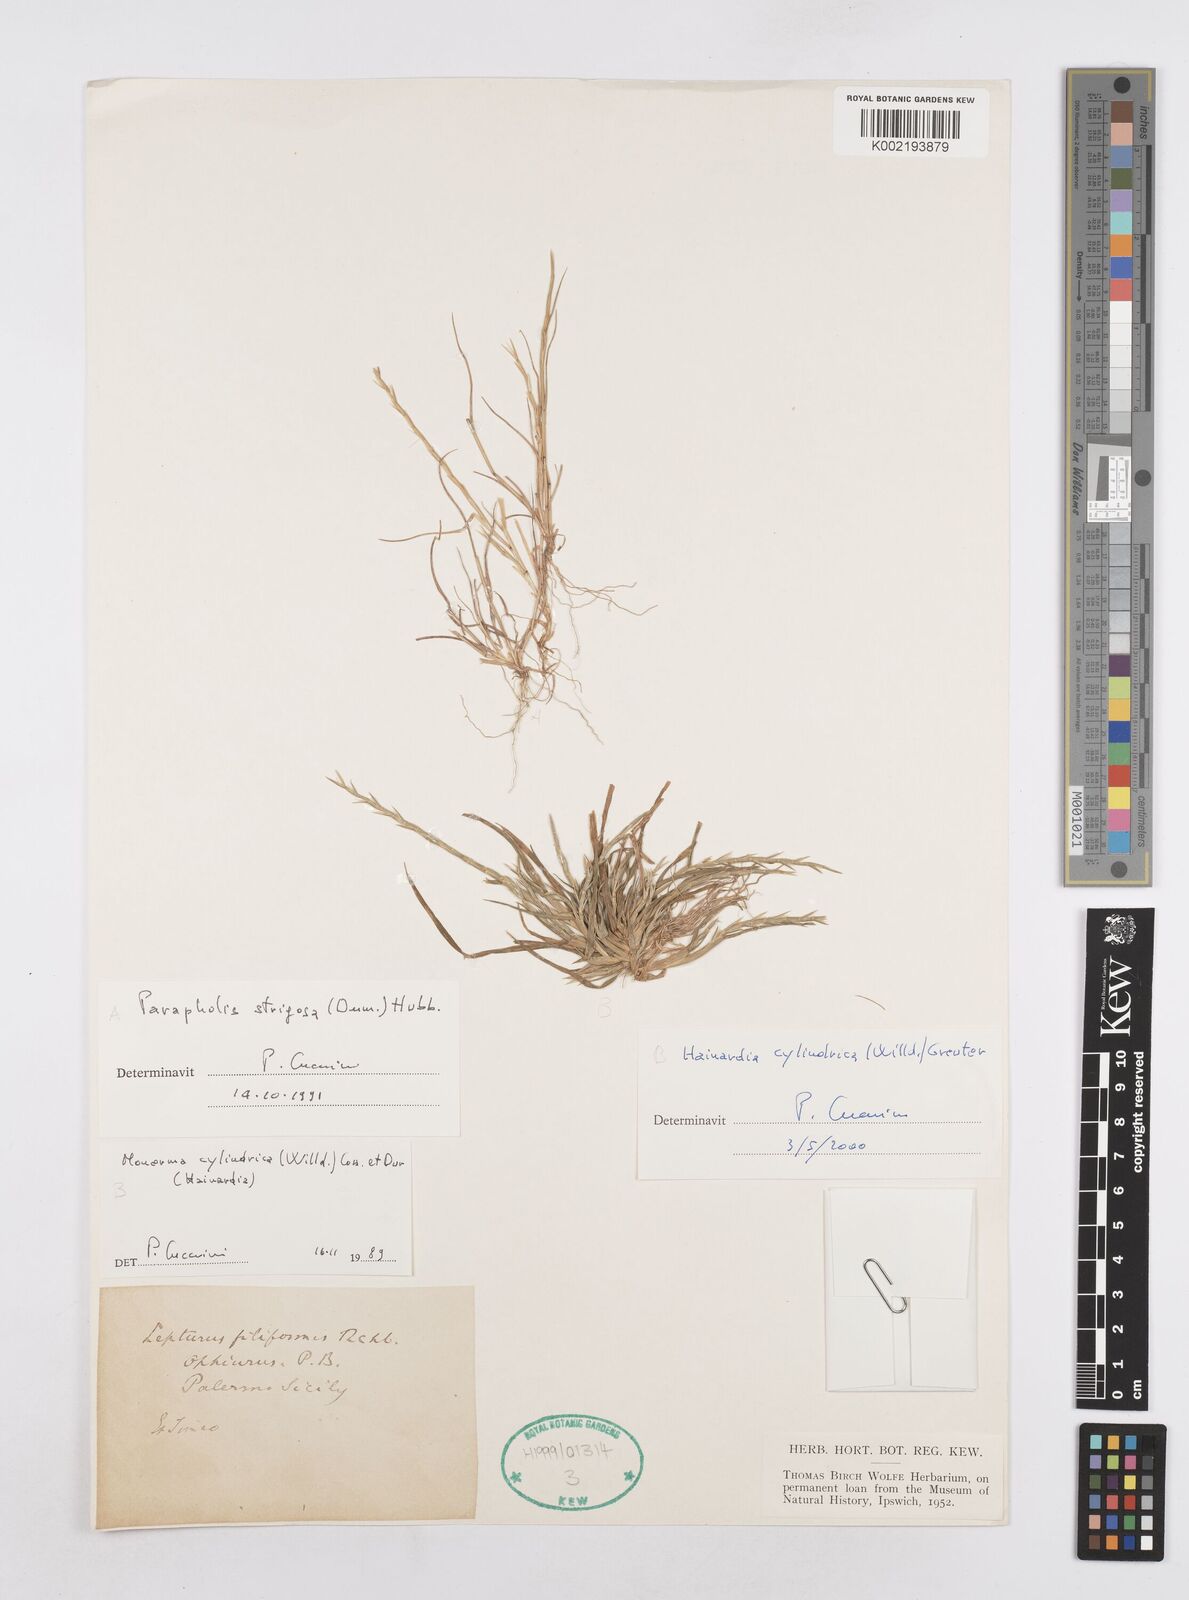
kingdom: Plantae
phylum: Tracheophyta
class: Liliopsida
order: Poales
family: Poaceae
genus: Parapholis
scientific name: Parapholis strigosa
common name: Hard-grass
